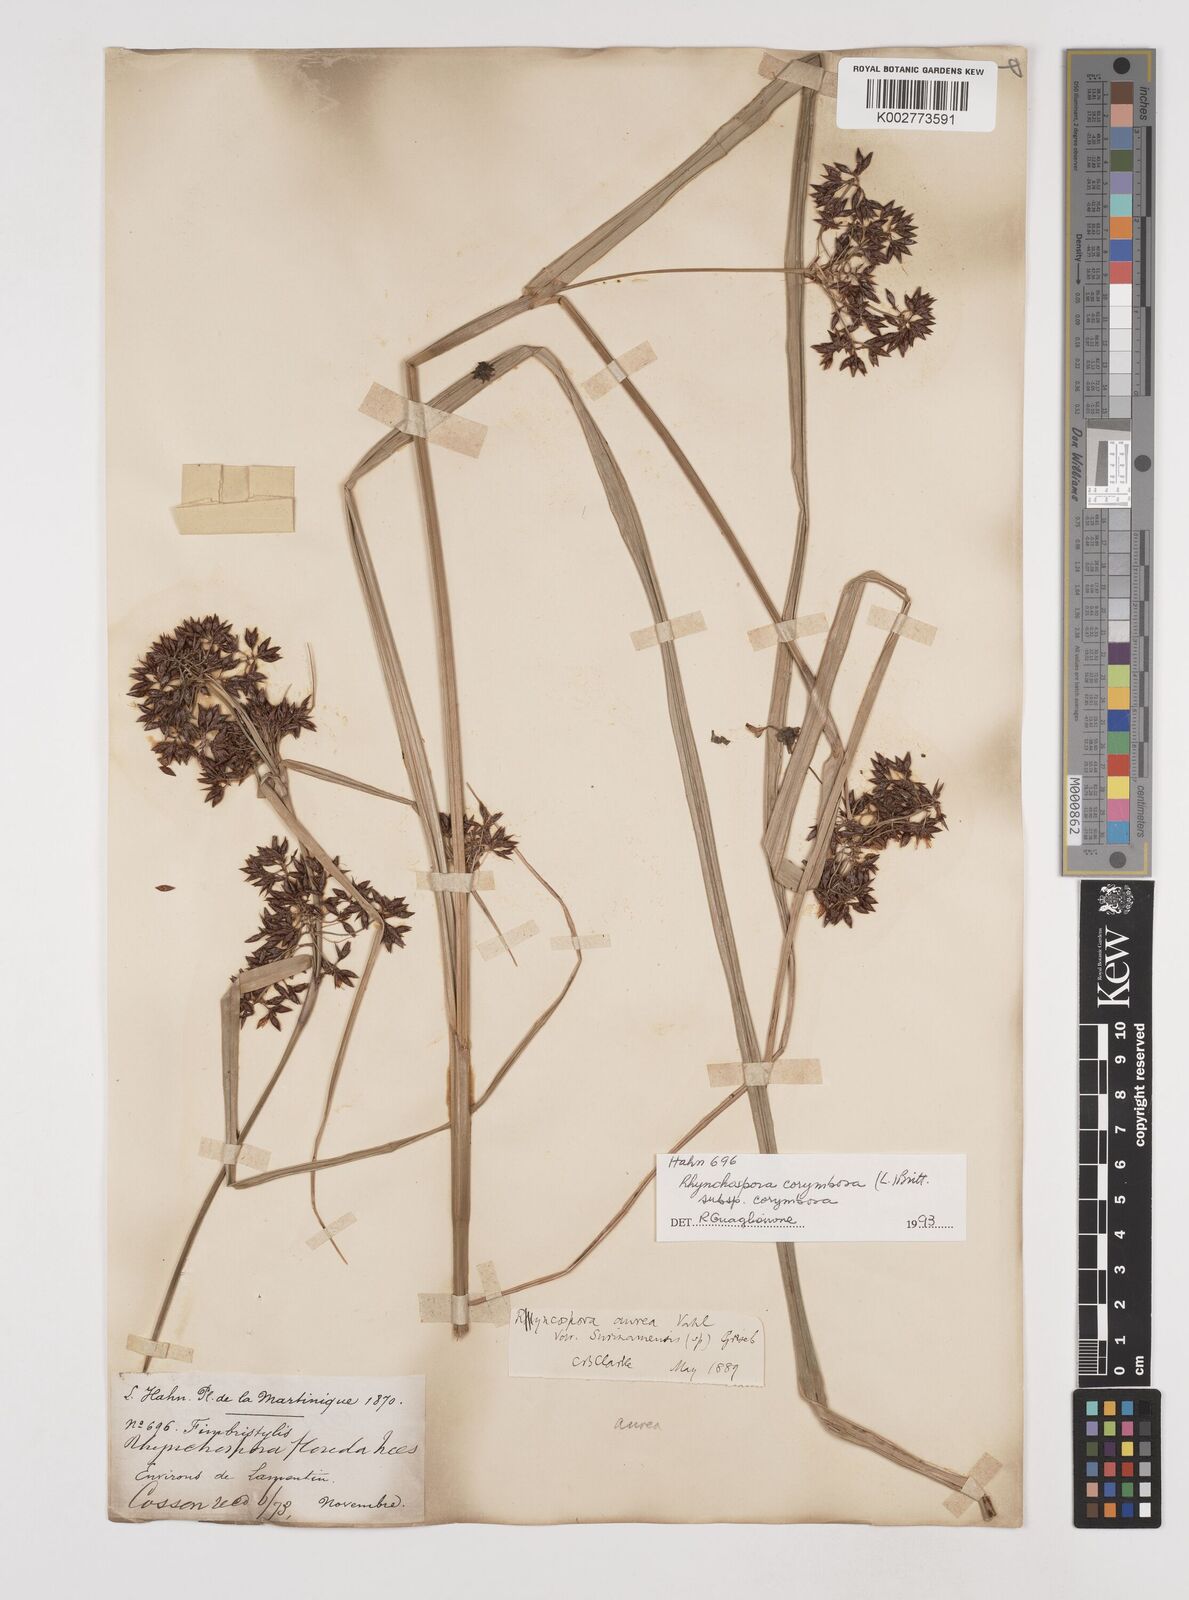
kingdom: Plantae
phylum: Tracheophyta
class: Liliopsida
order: Poales
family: Cyperaceae
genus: Rhynchospora
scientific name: Rhynchospora corymbosa
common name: Golden beak sedge
